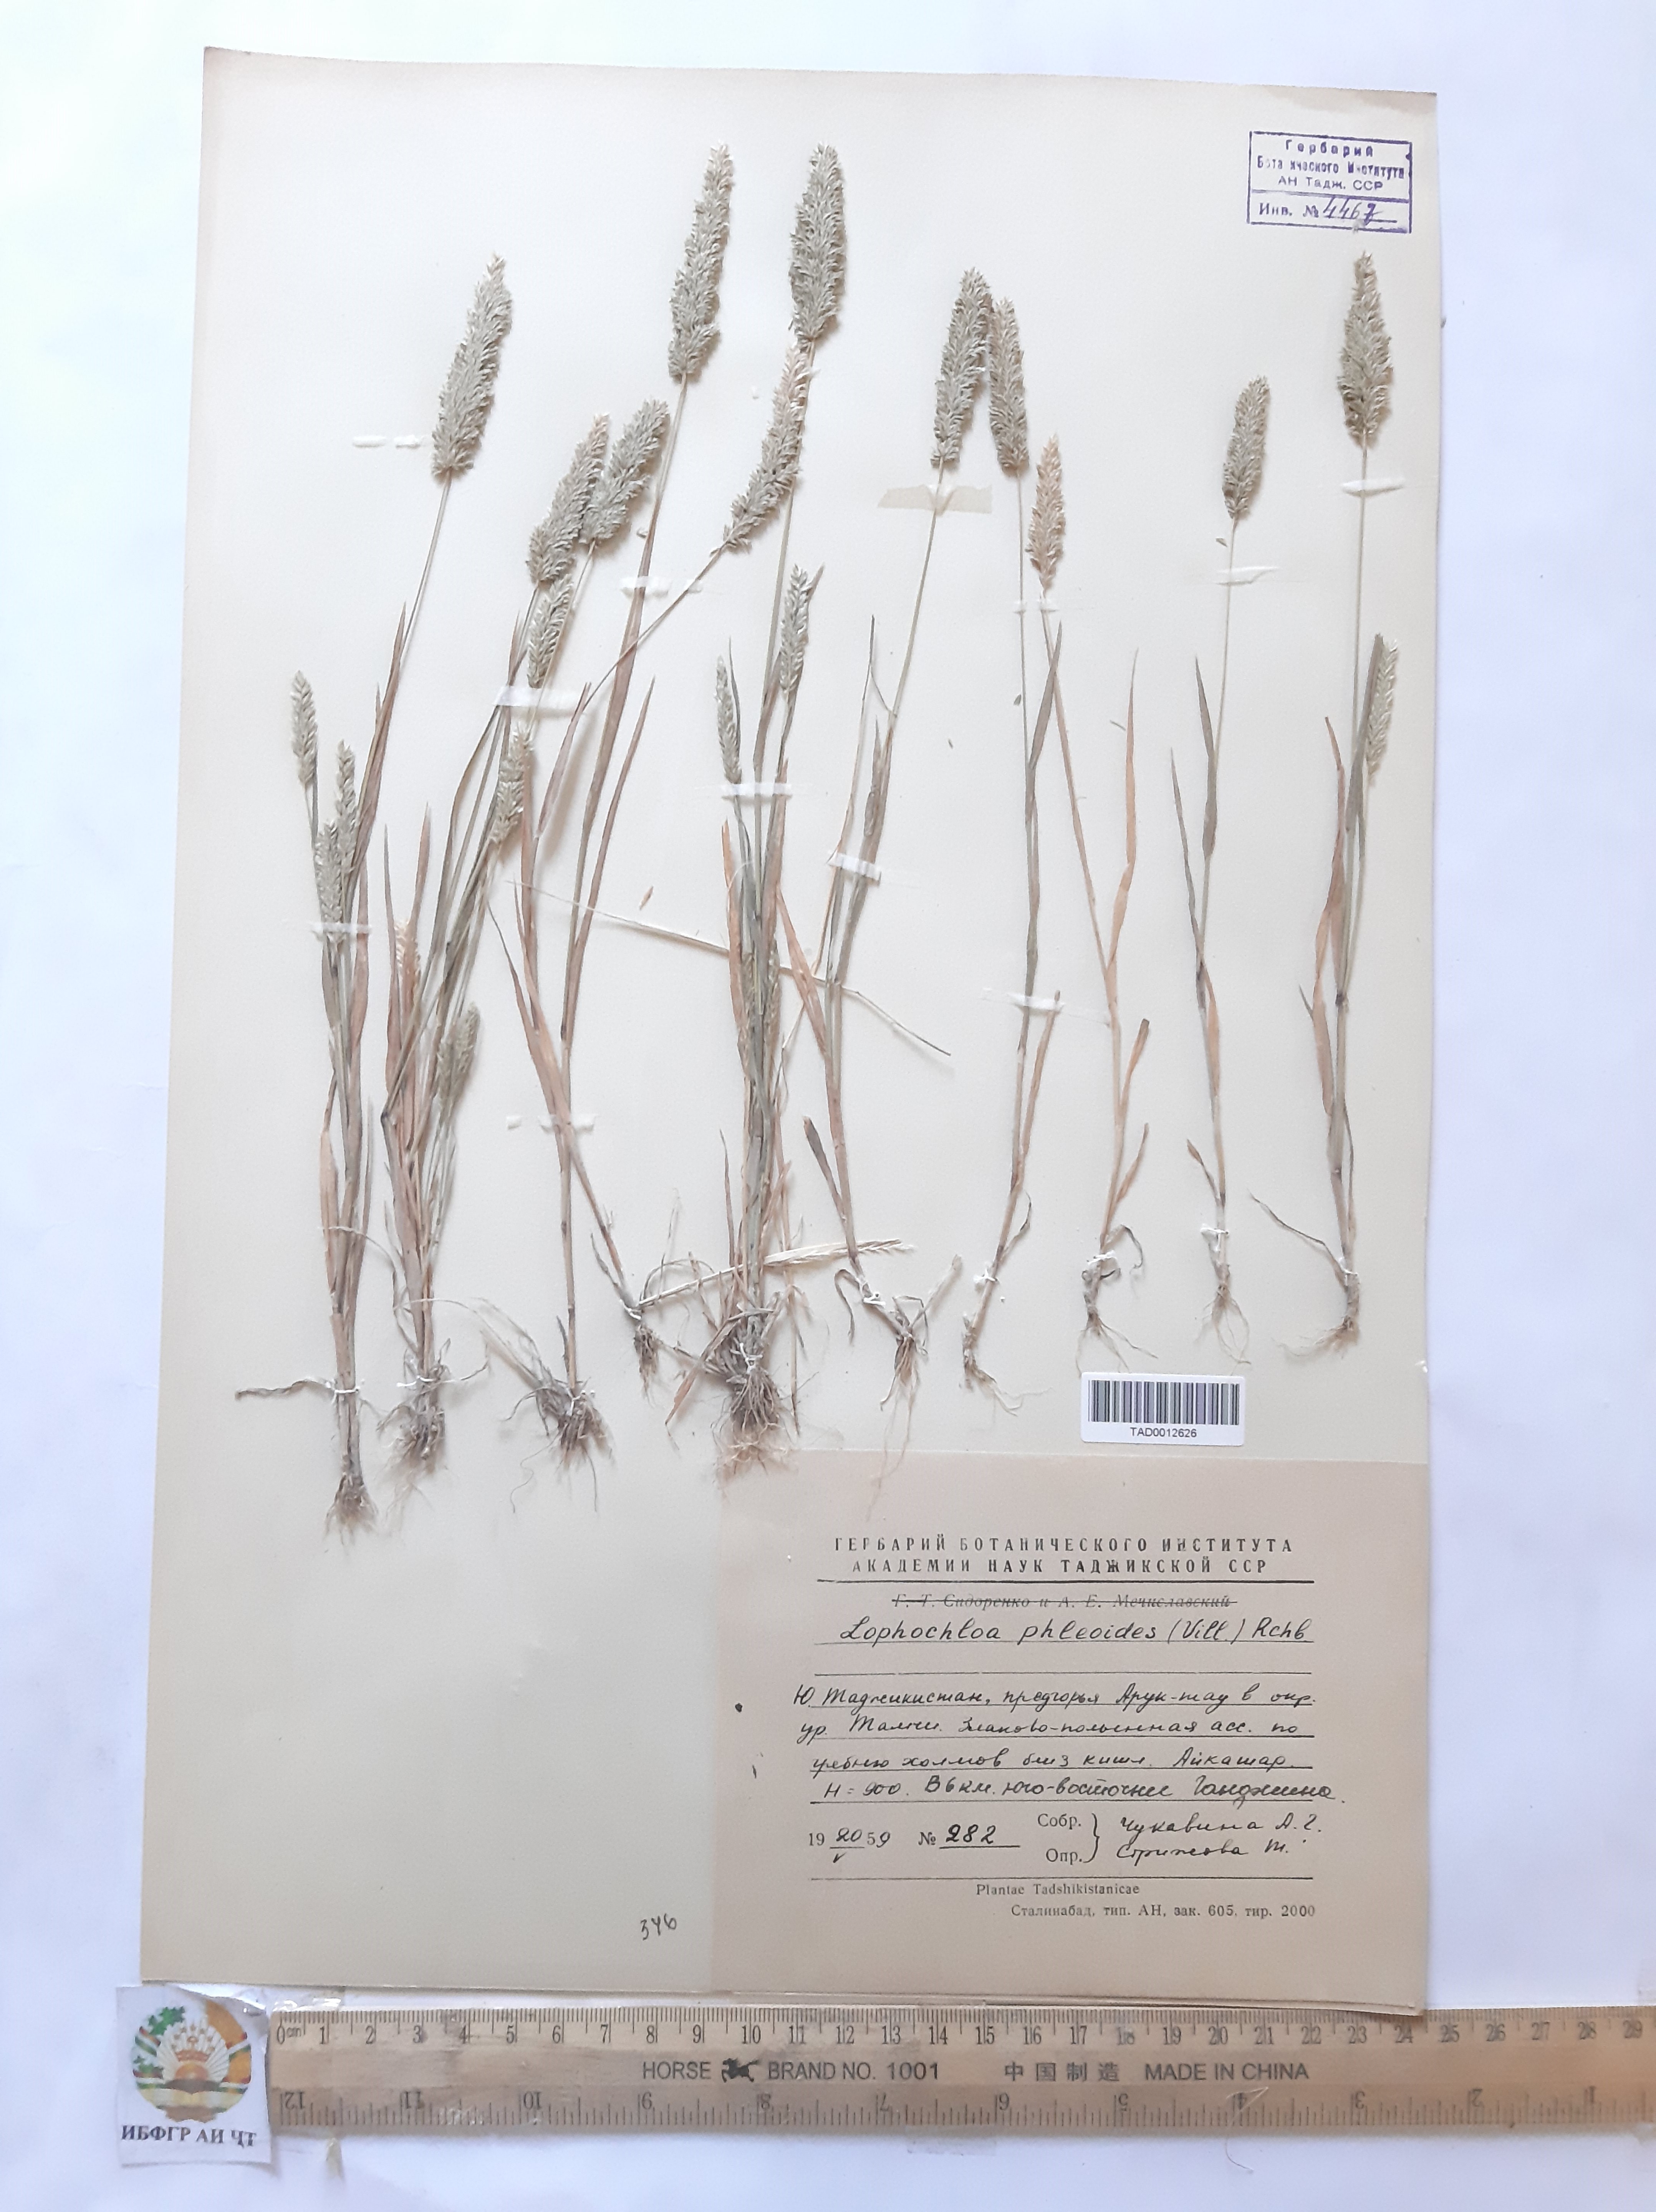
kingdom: Plantae
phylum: Tracheophyta
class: Liliopsida
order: Poales
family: Poaceae
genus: Rostraria
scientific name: Rostraria cristata
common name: Mediterranean hair-grass
